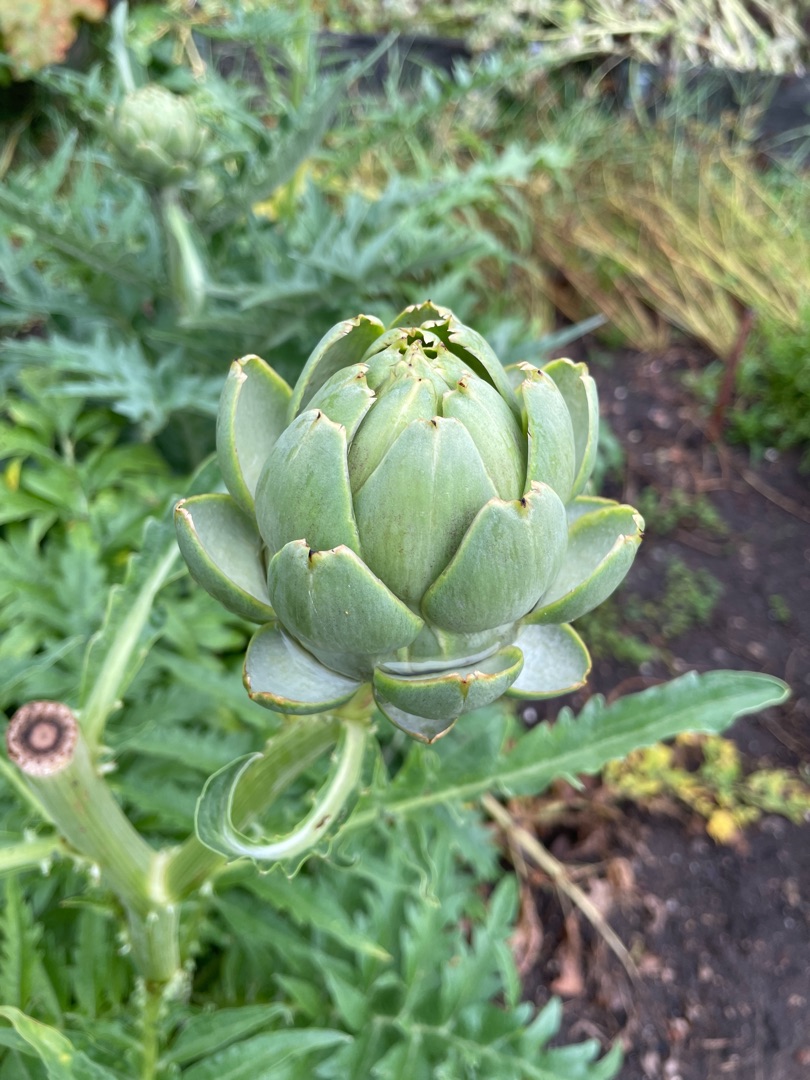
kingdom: Plantae
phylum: Tracheophyta
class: Magnoliopsida
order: Asterales
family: Asteraceae
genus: Cynara
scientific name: Cynara cardunculus
